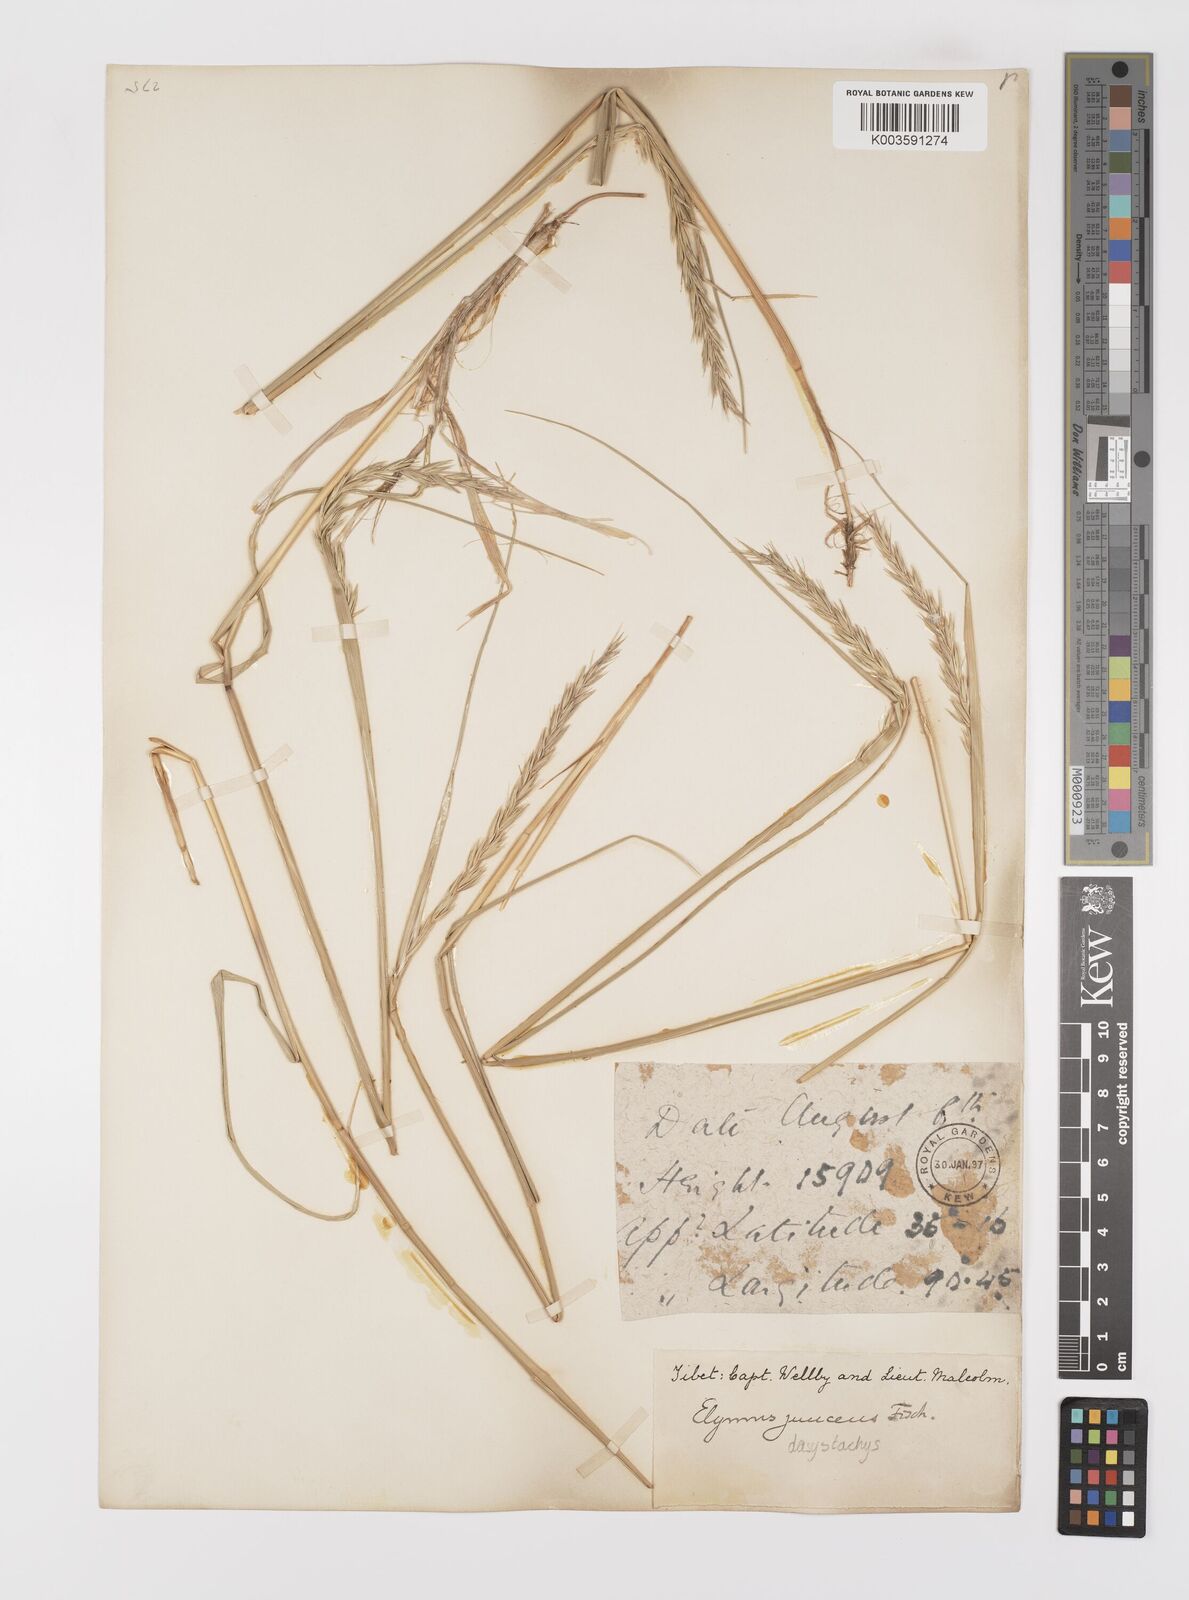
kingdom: Plantae
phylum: Tracheophyta
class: Liliopsida
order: Poales
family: Poaceae
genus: Leymus
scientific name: Leymus secalinus
